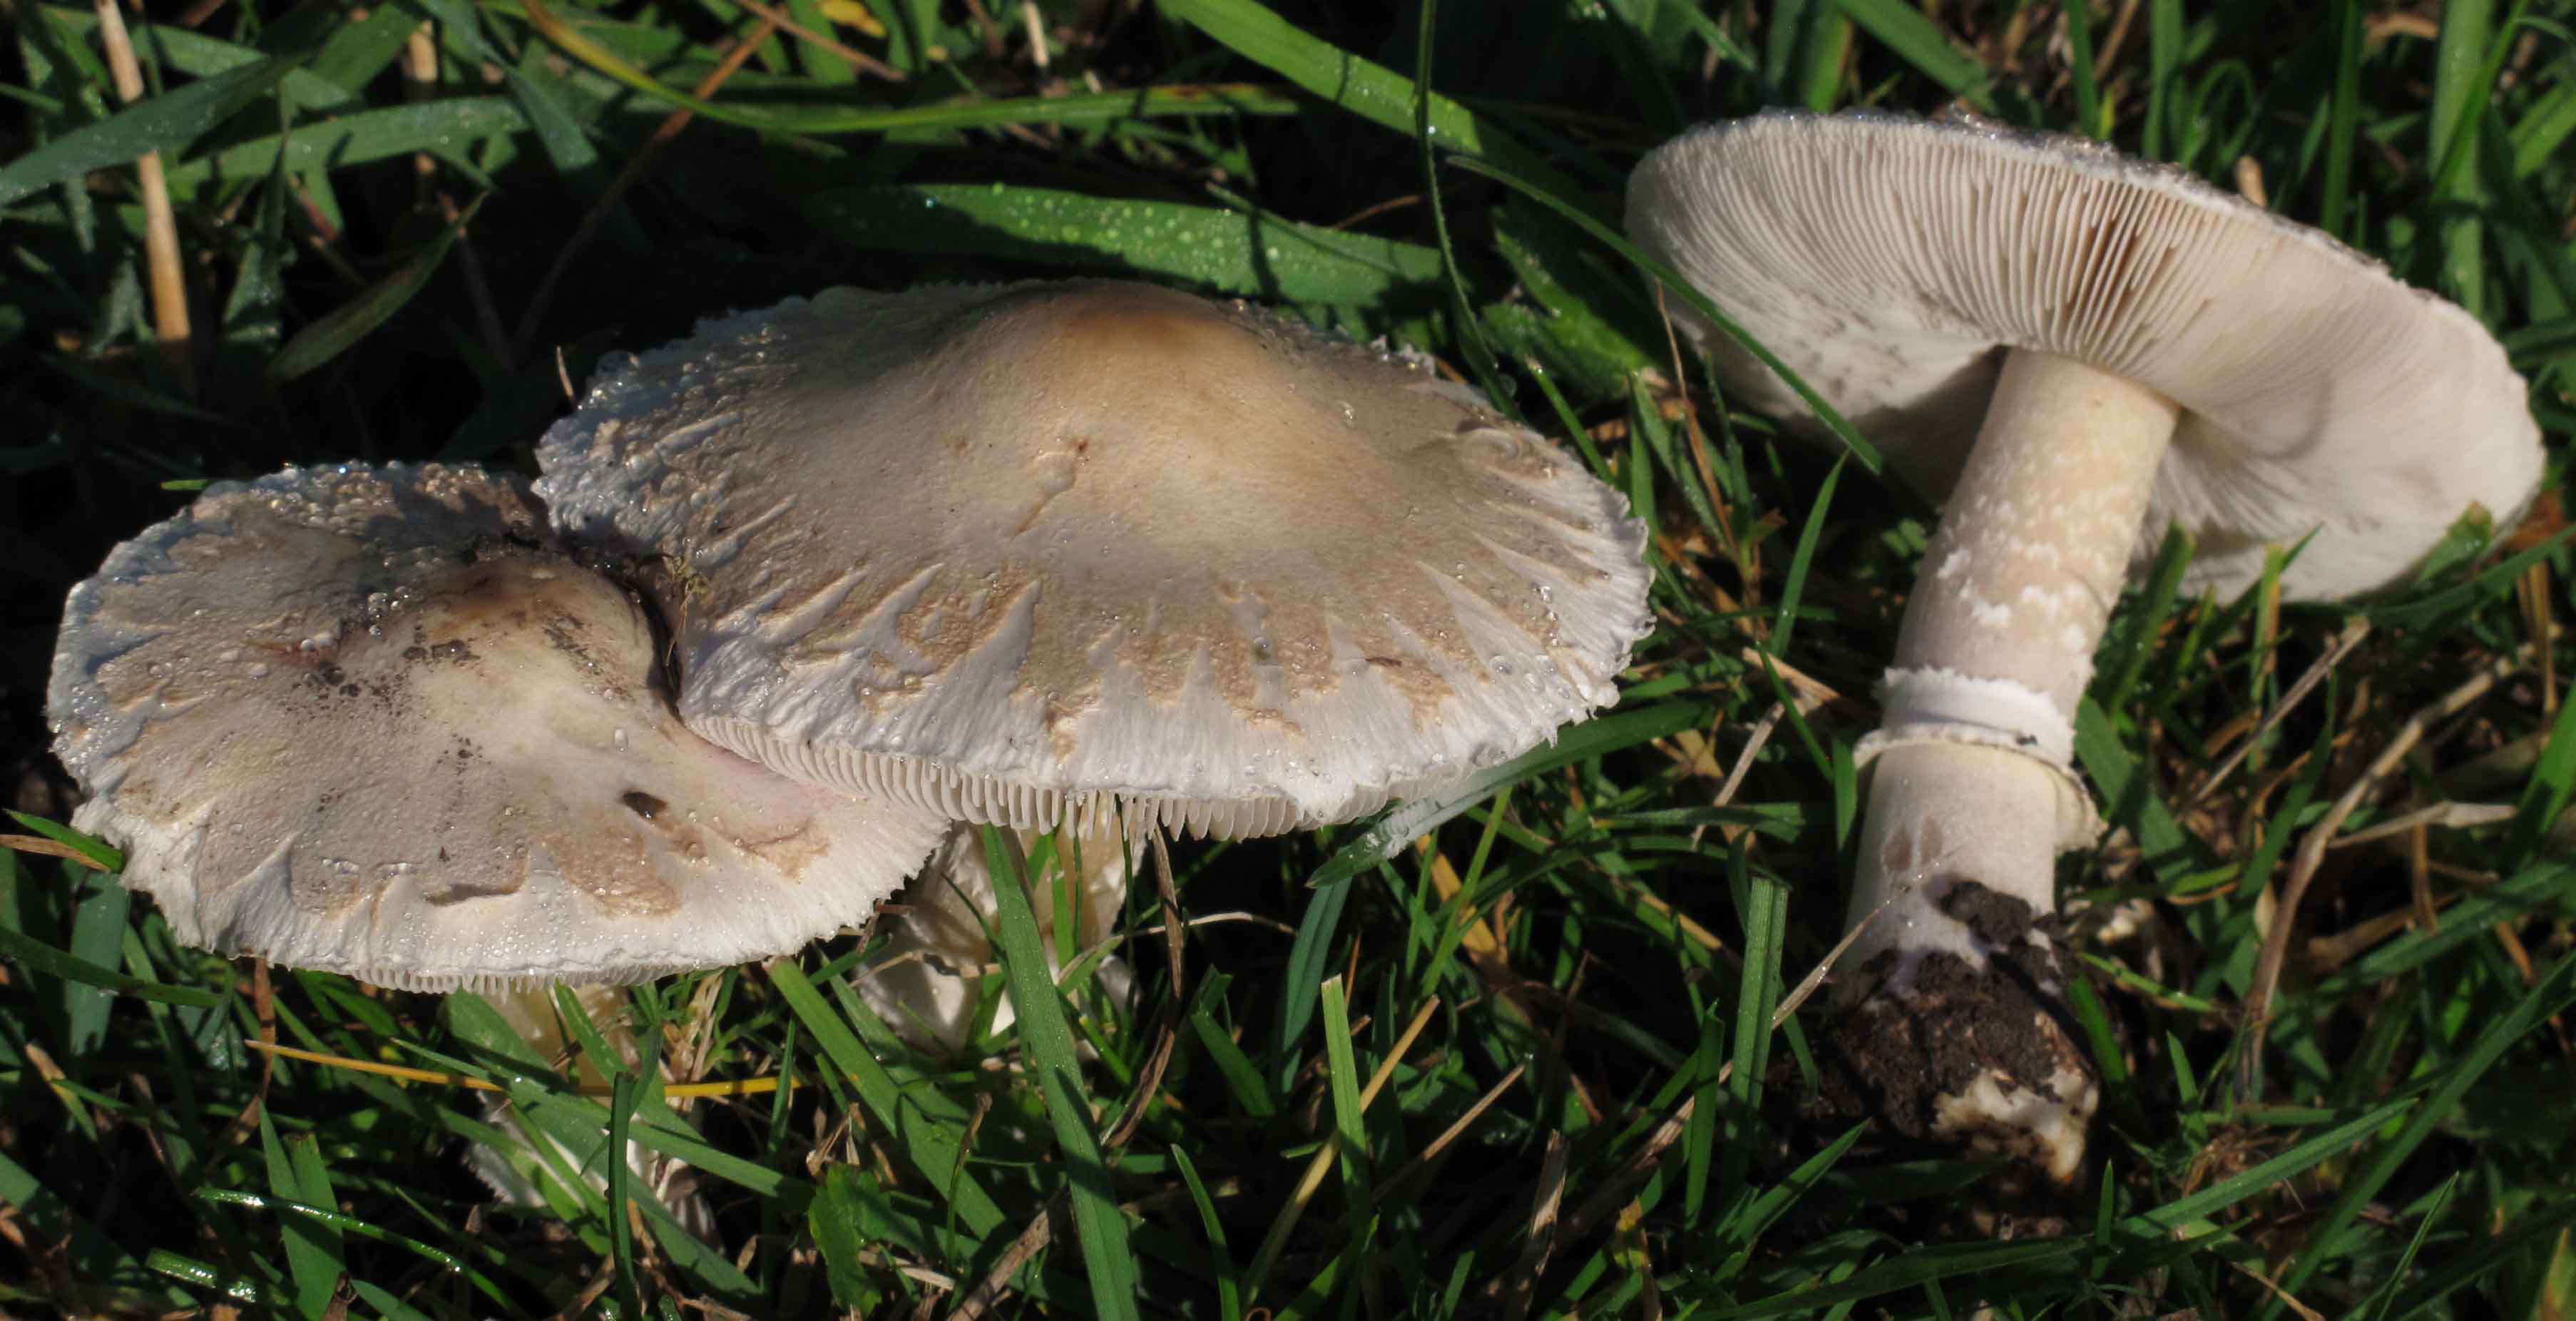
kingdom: Fungi
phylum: Basidiomycota
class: Agaricomycetes
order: Agaricales
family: Agaricaceae
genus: Macrolepiota
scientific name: Macrolepiota excoriata
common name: mark-kæmpeparasolhat
